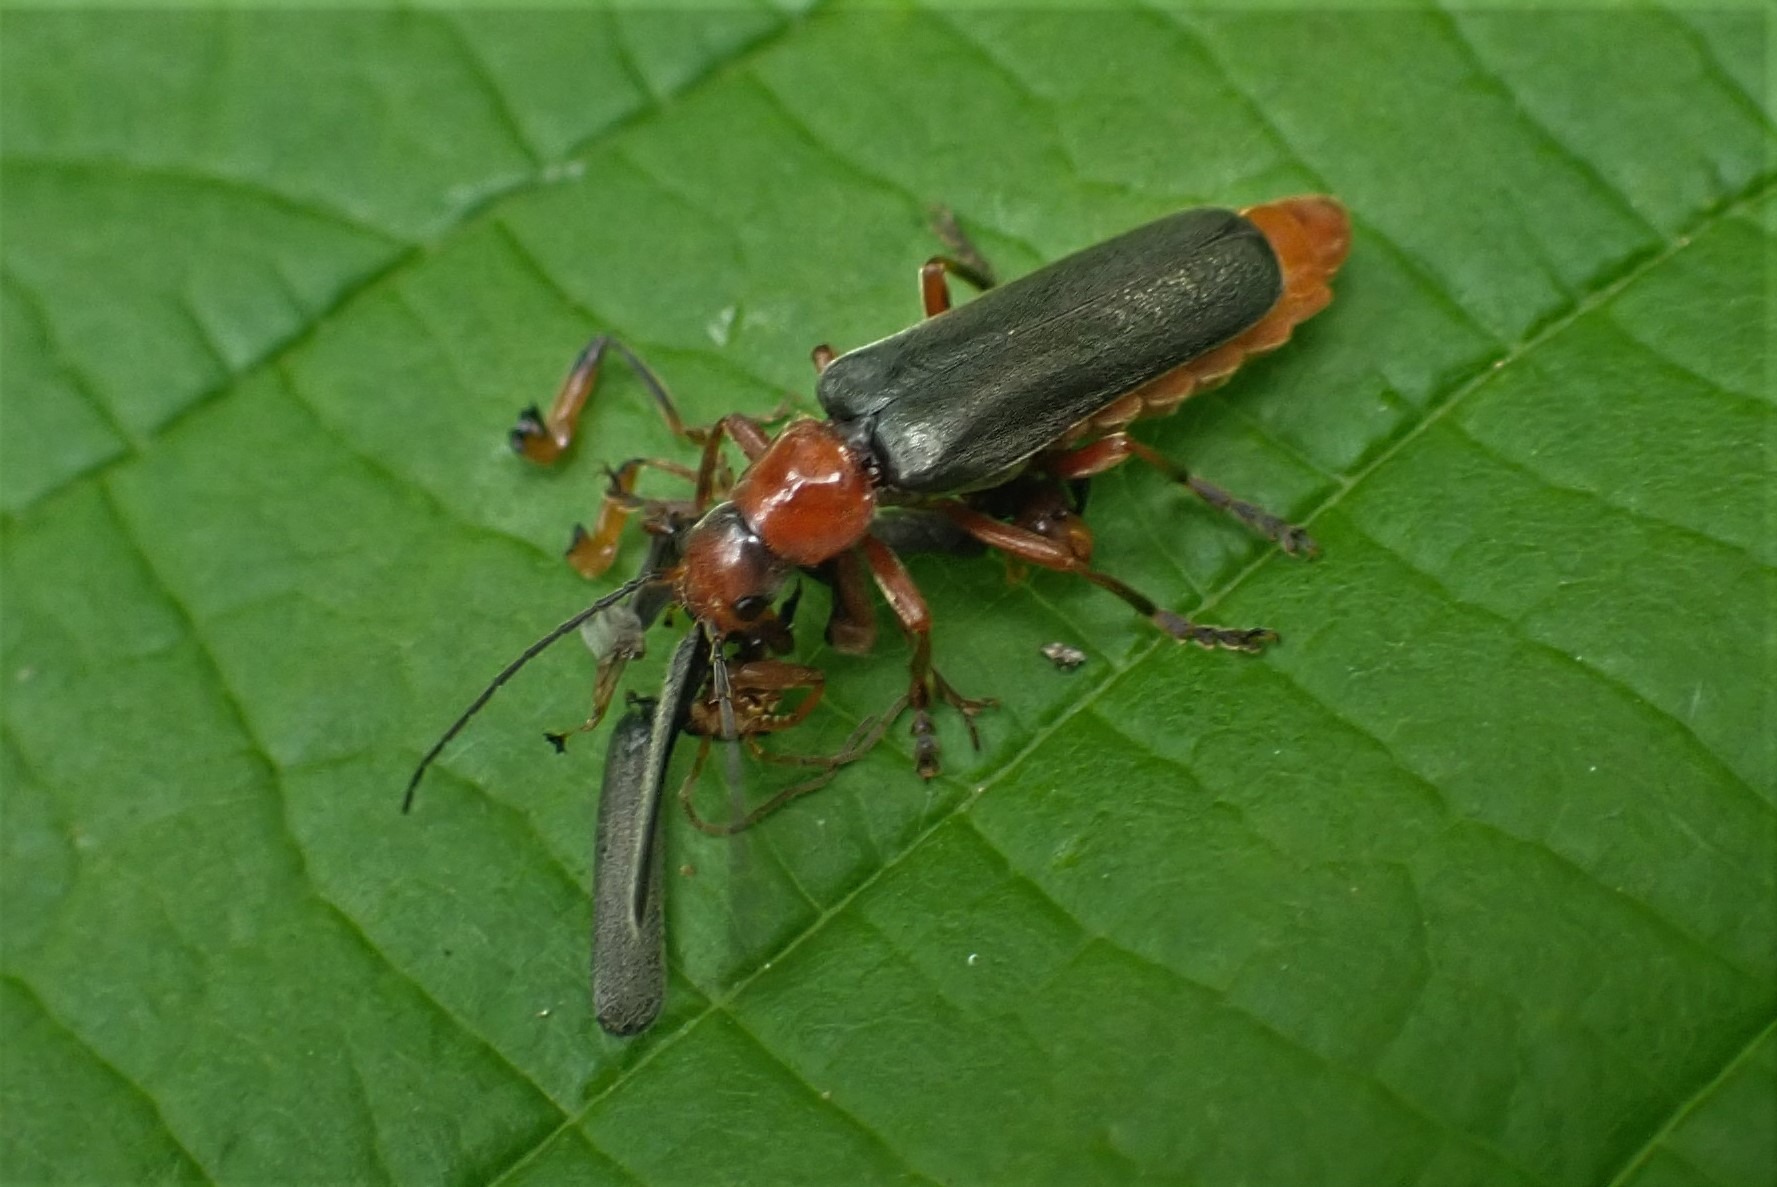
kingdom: Animalia
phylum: Arthropoda
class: Insecta
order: Coleoptera
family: Cantharidae
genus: Cantharis
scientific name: Cantharis pellucida
